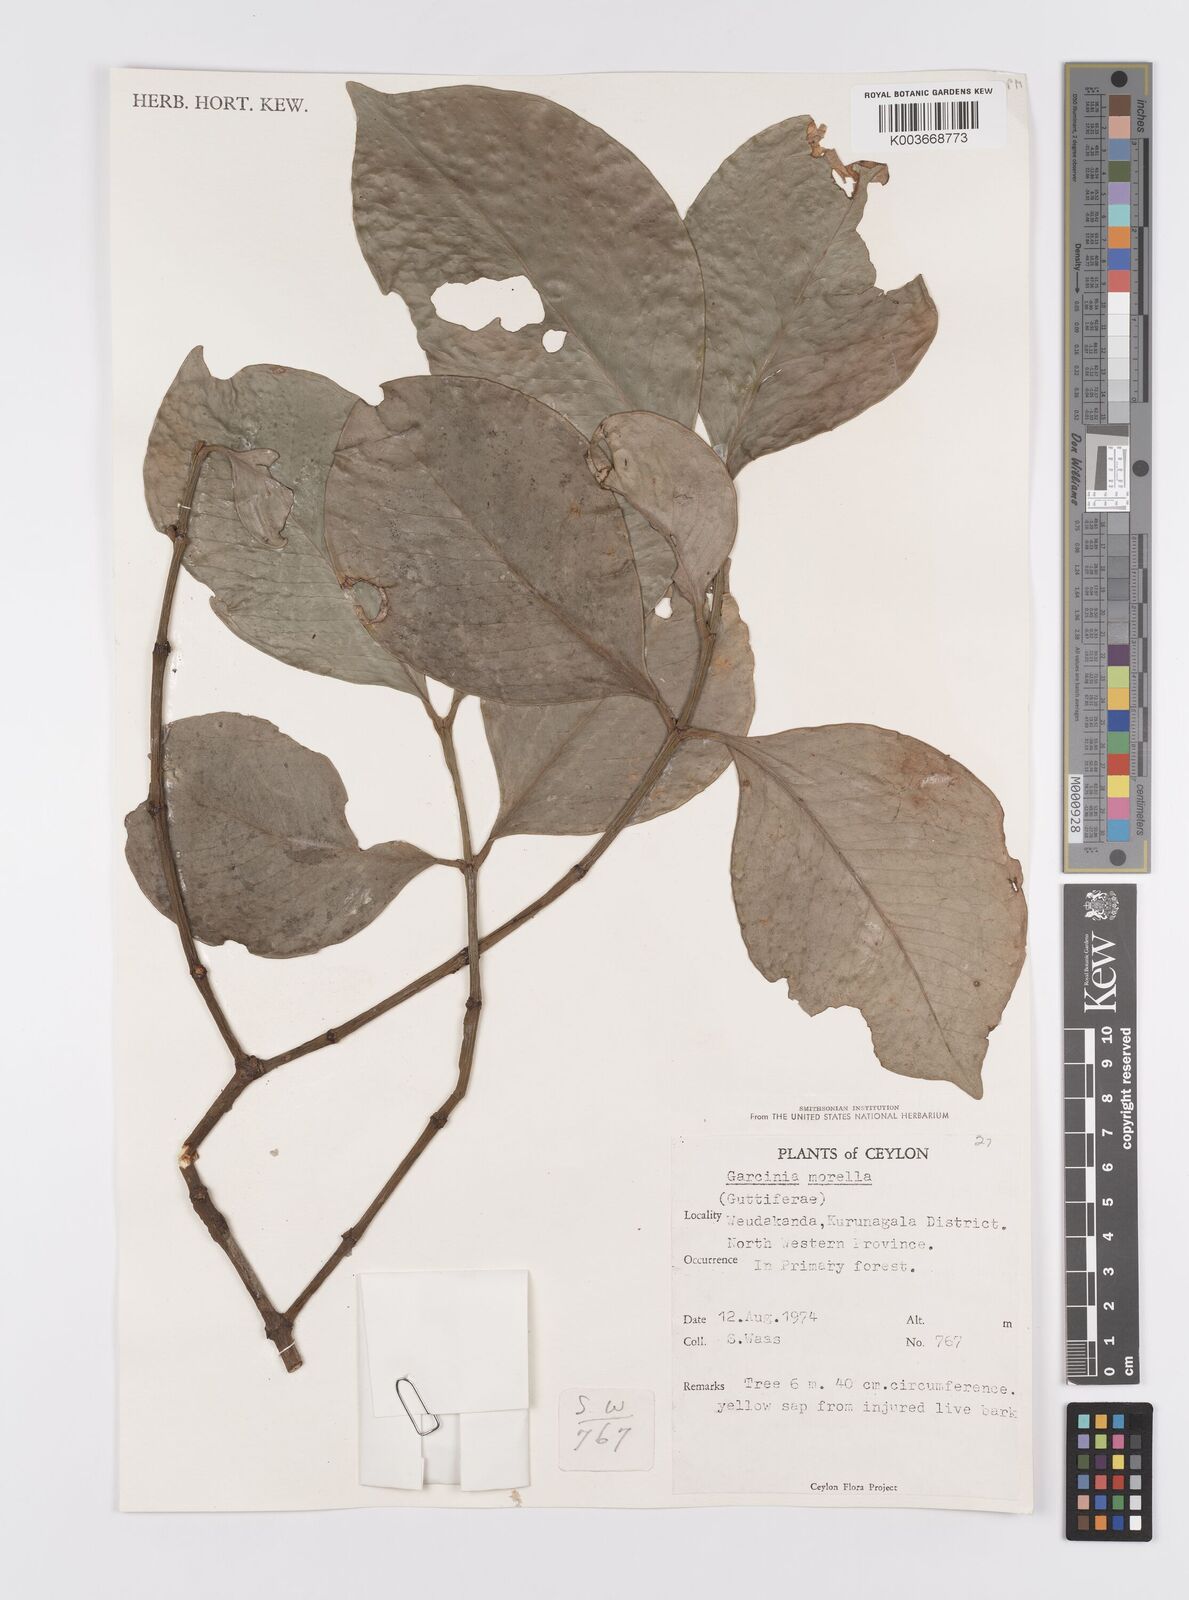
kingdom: Plantae
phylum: Tracheophyta
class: Magnoliopsida
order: Malpighiales
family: Clusiaceae
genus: Garcinia
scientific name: Garcinia morella
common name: Indian gamboge-tree
